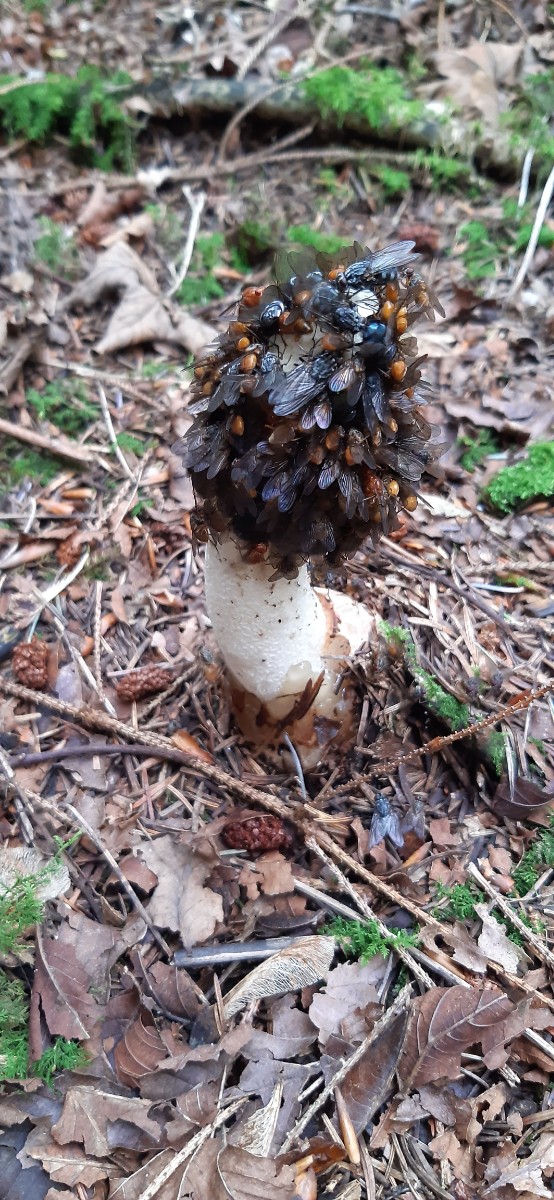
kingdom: Fungi
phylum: Basidiomycota
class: Agaricomycetes
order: Phallales
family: Phallaceae
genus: Phallus
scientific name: Phallus impudicus
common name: almindelig stinksvamp
